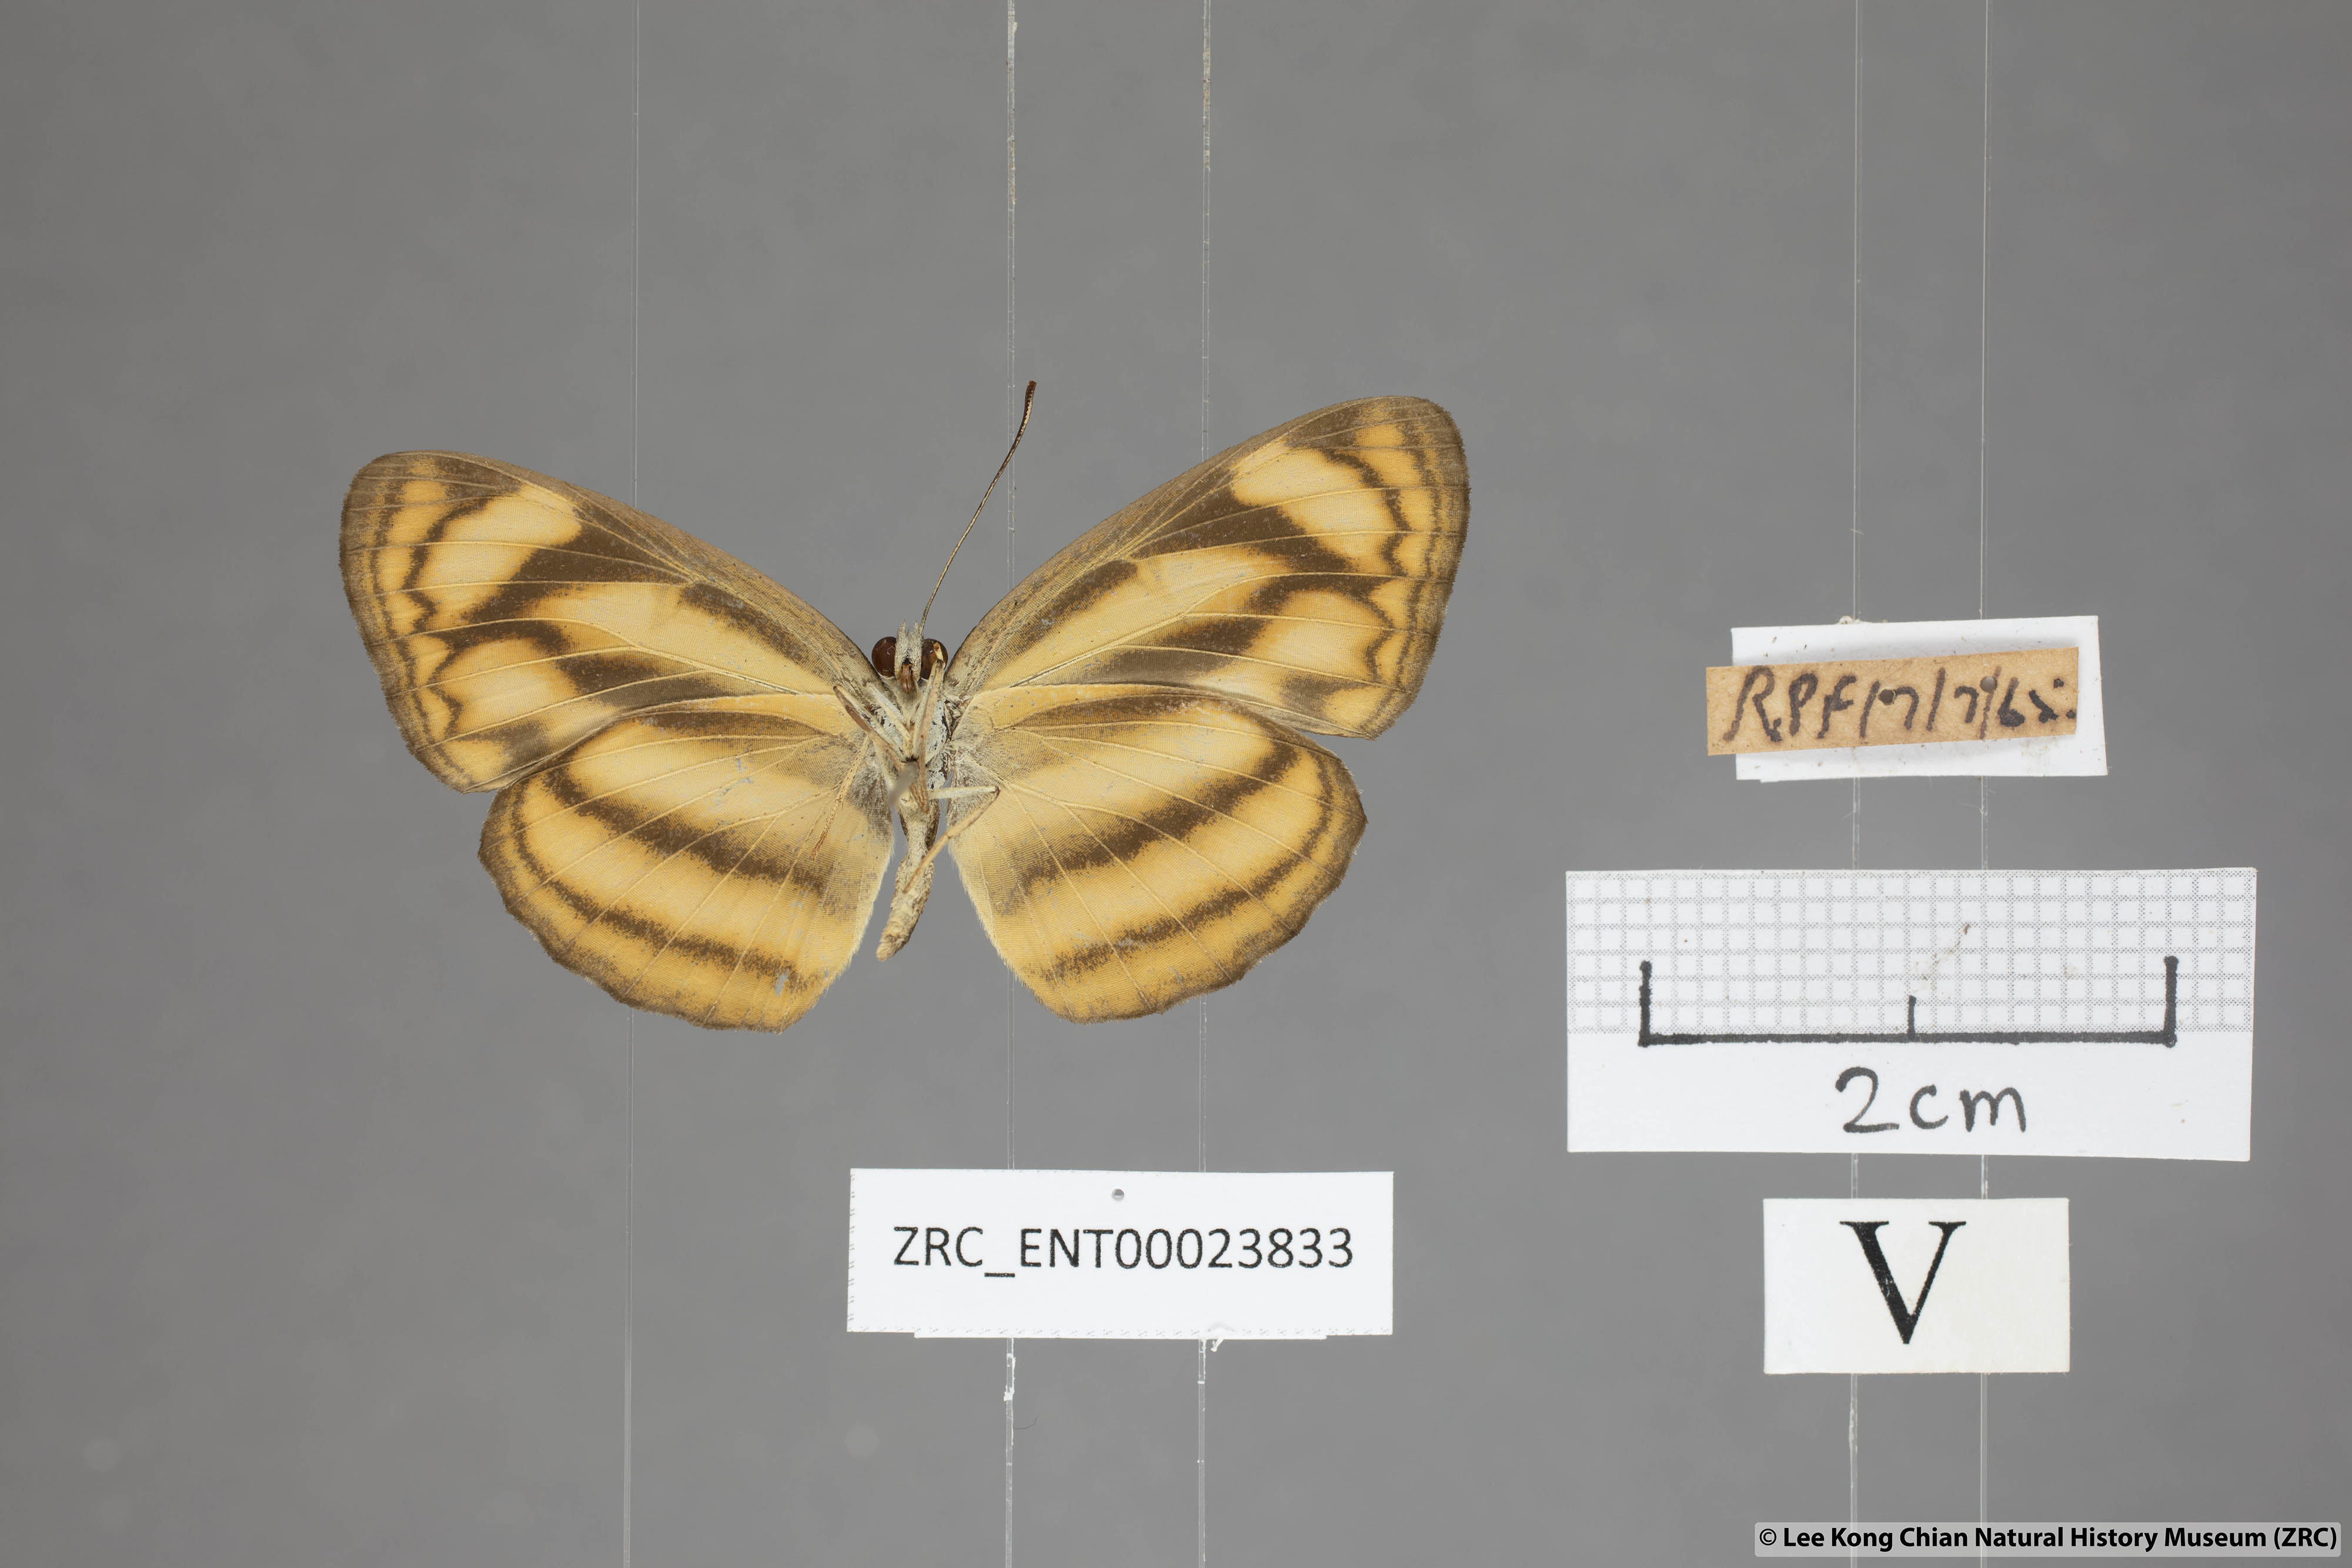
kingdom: Animalia
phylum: Arthropoda
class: Insecta
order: Lepidoptera
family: Nymphalidae
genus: Lasippa
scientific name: Lasippa heliodore
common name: Burmese lascar
